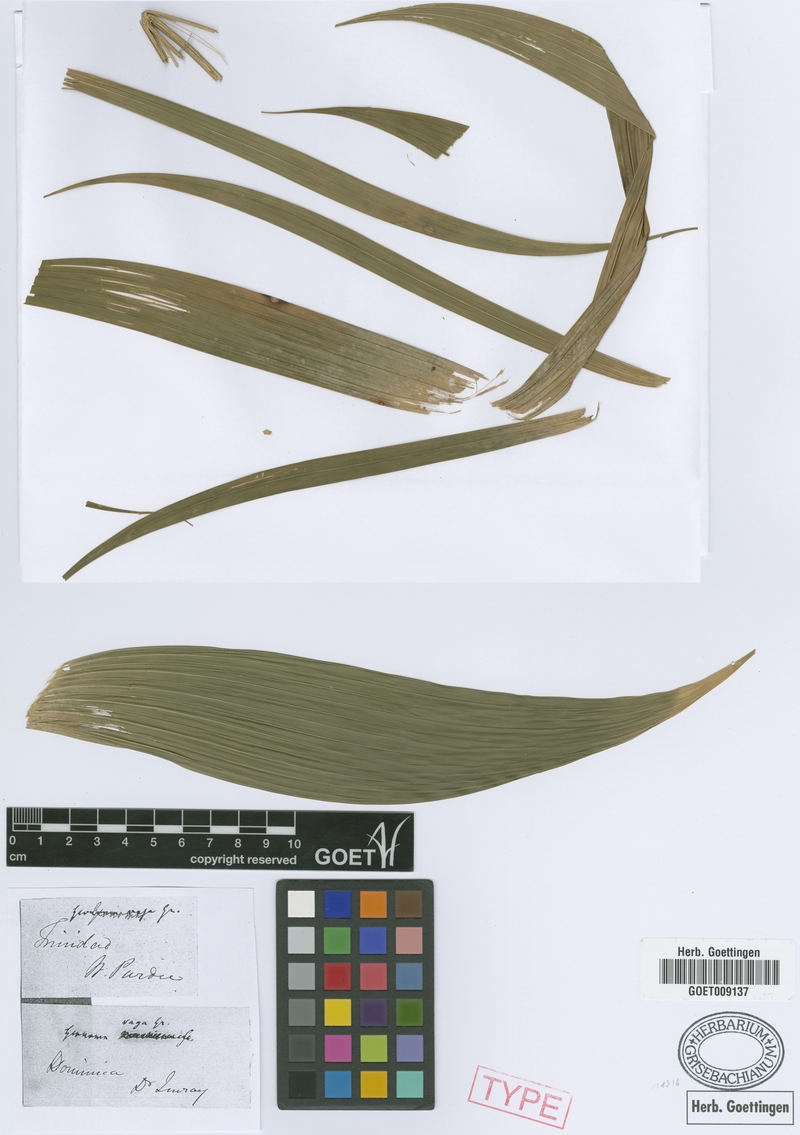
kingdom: Plantae
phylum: Tracheophyta
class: Liliopsida
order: Arecales
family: Arecaceae
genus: Geonoma
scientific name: Geonoma pinnatifrons
